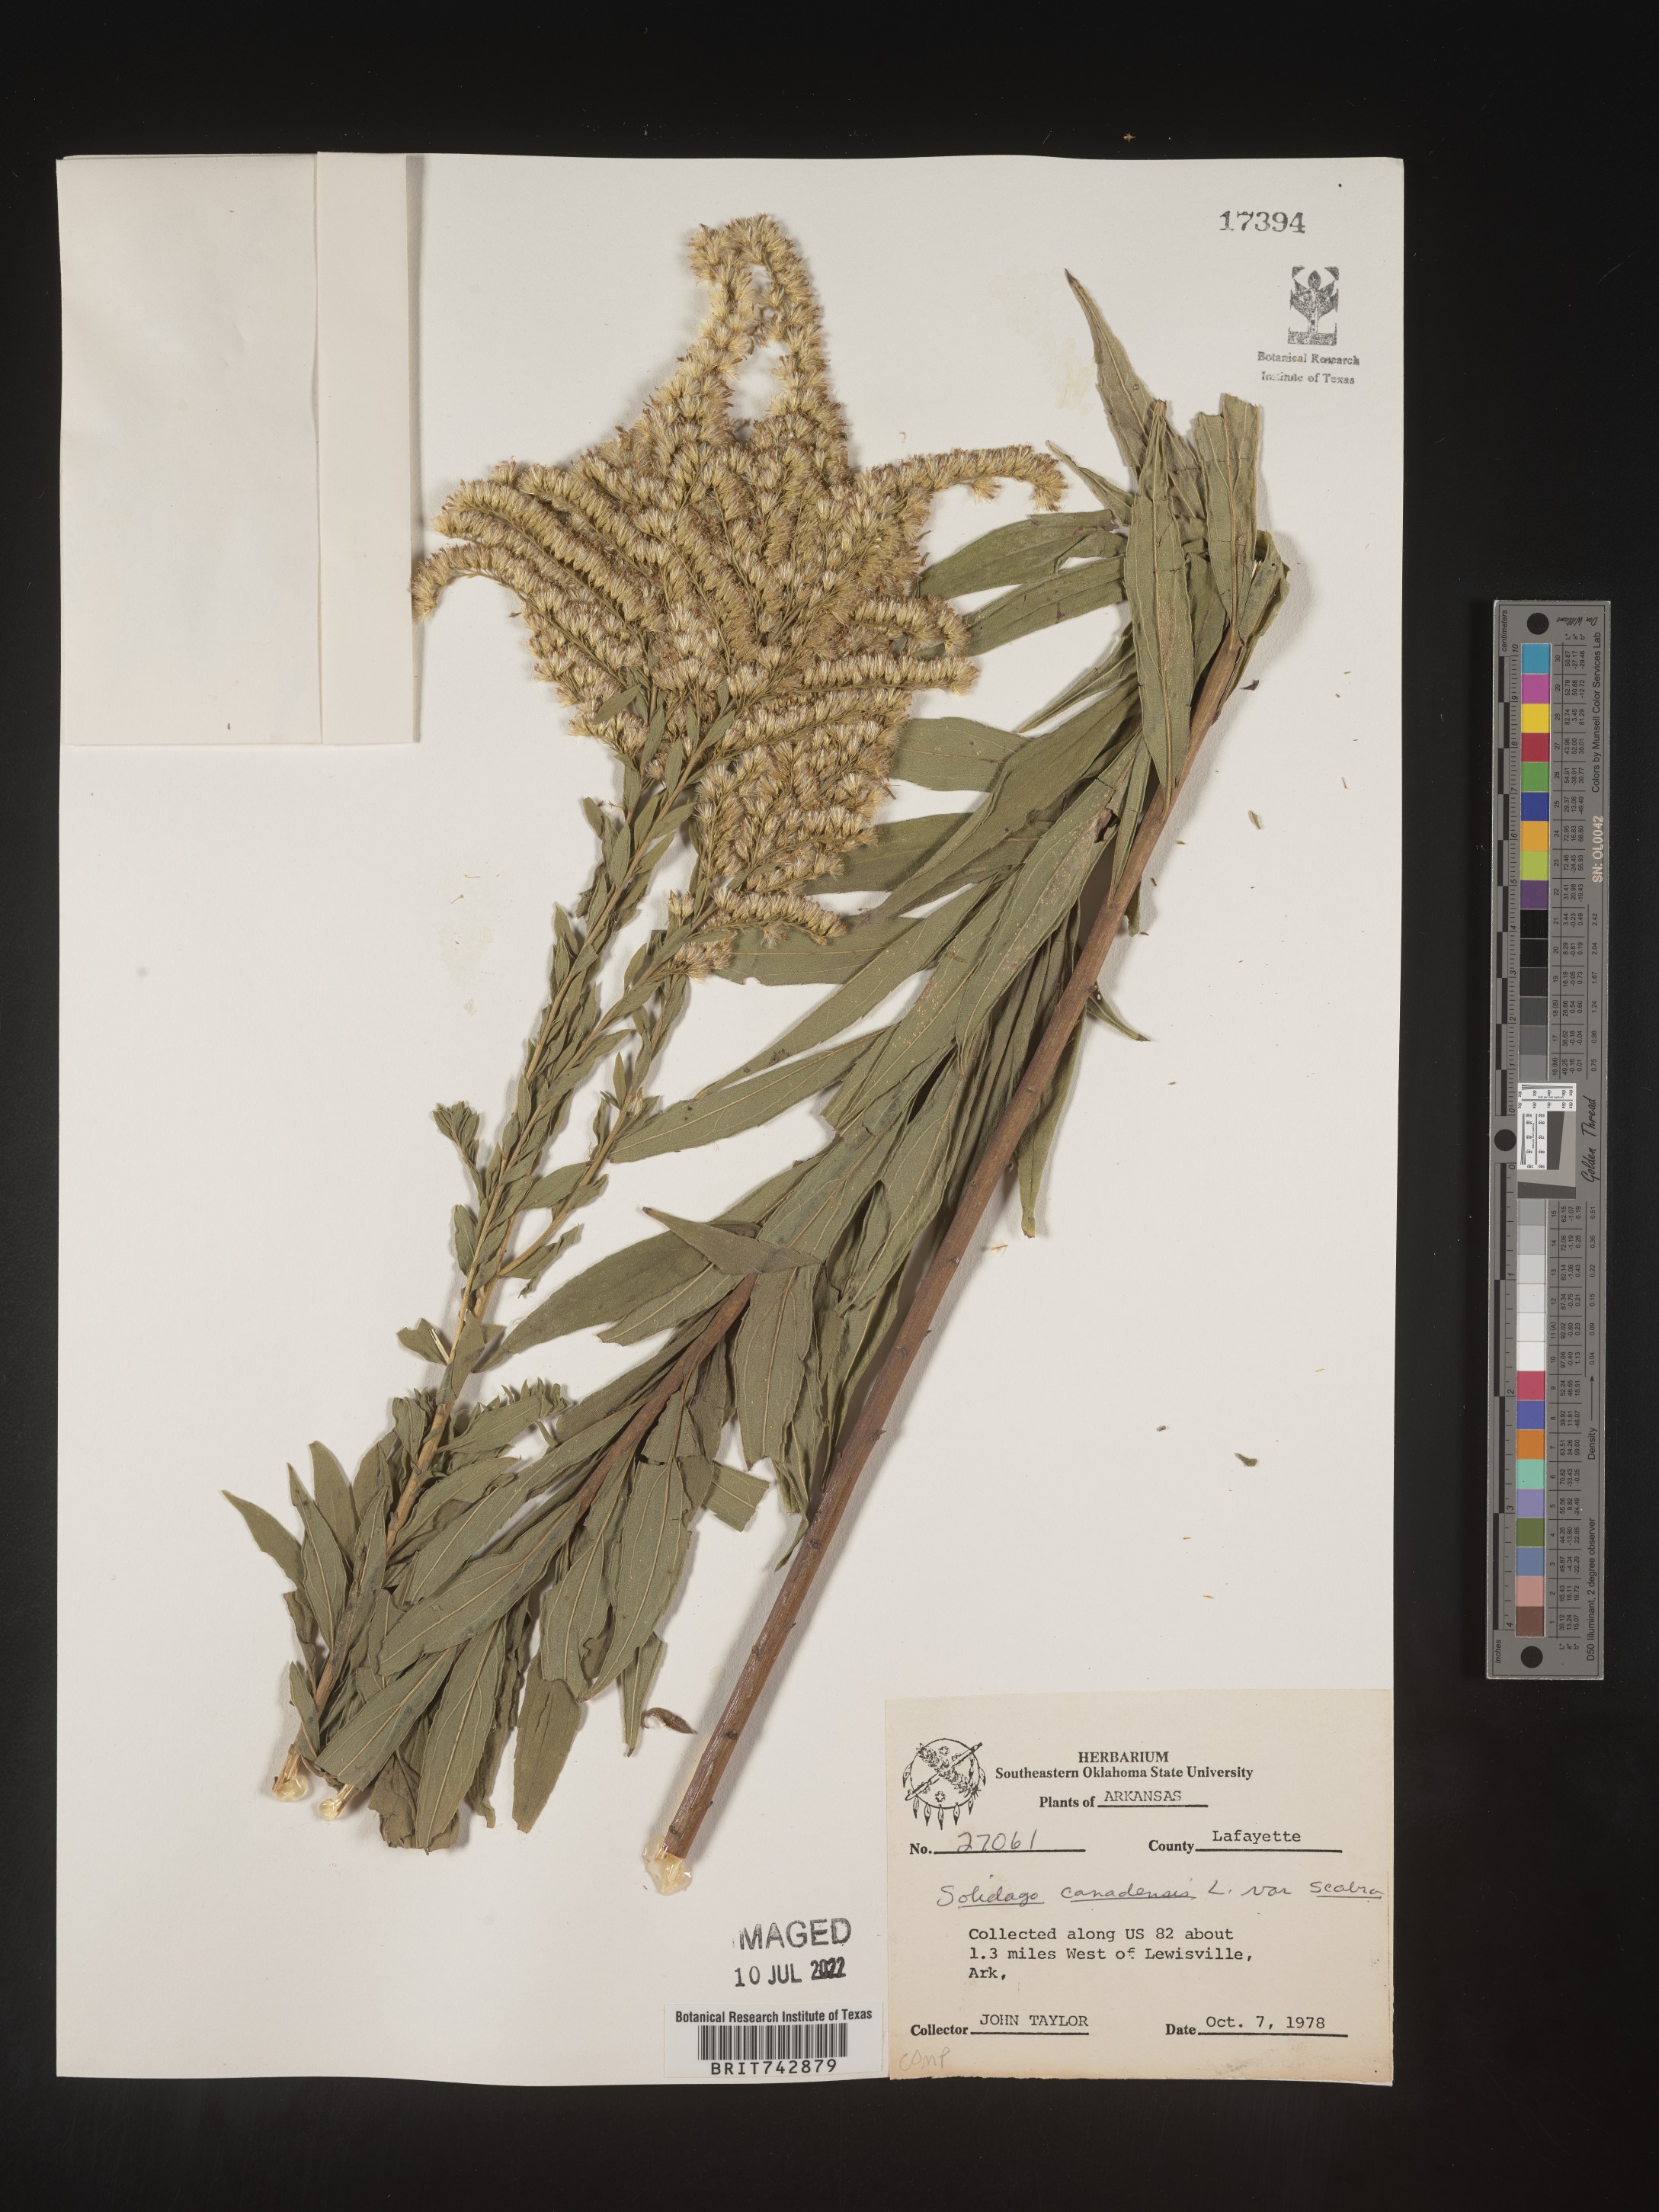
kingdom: Plantae
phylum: Tracheophyta
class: Magnoliopsida
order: Asterales
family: Asteraceae
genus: Solidago
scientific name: Solidago altissima
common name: Late goldenrod
